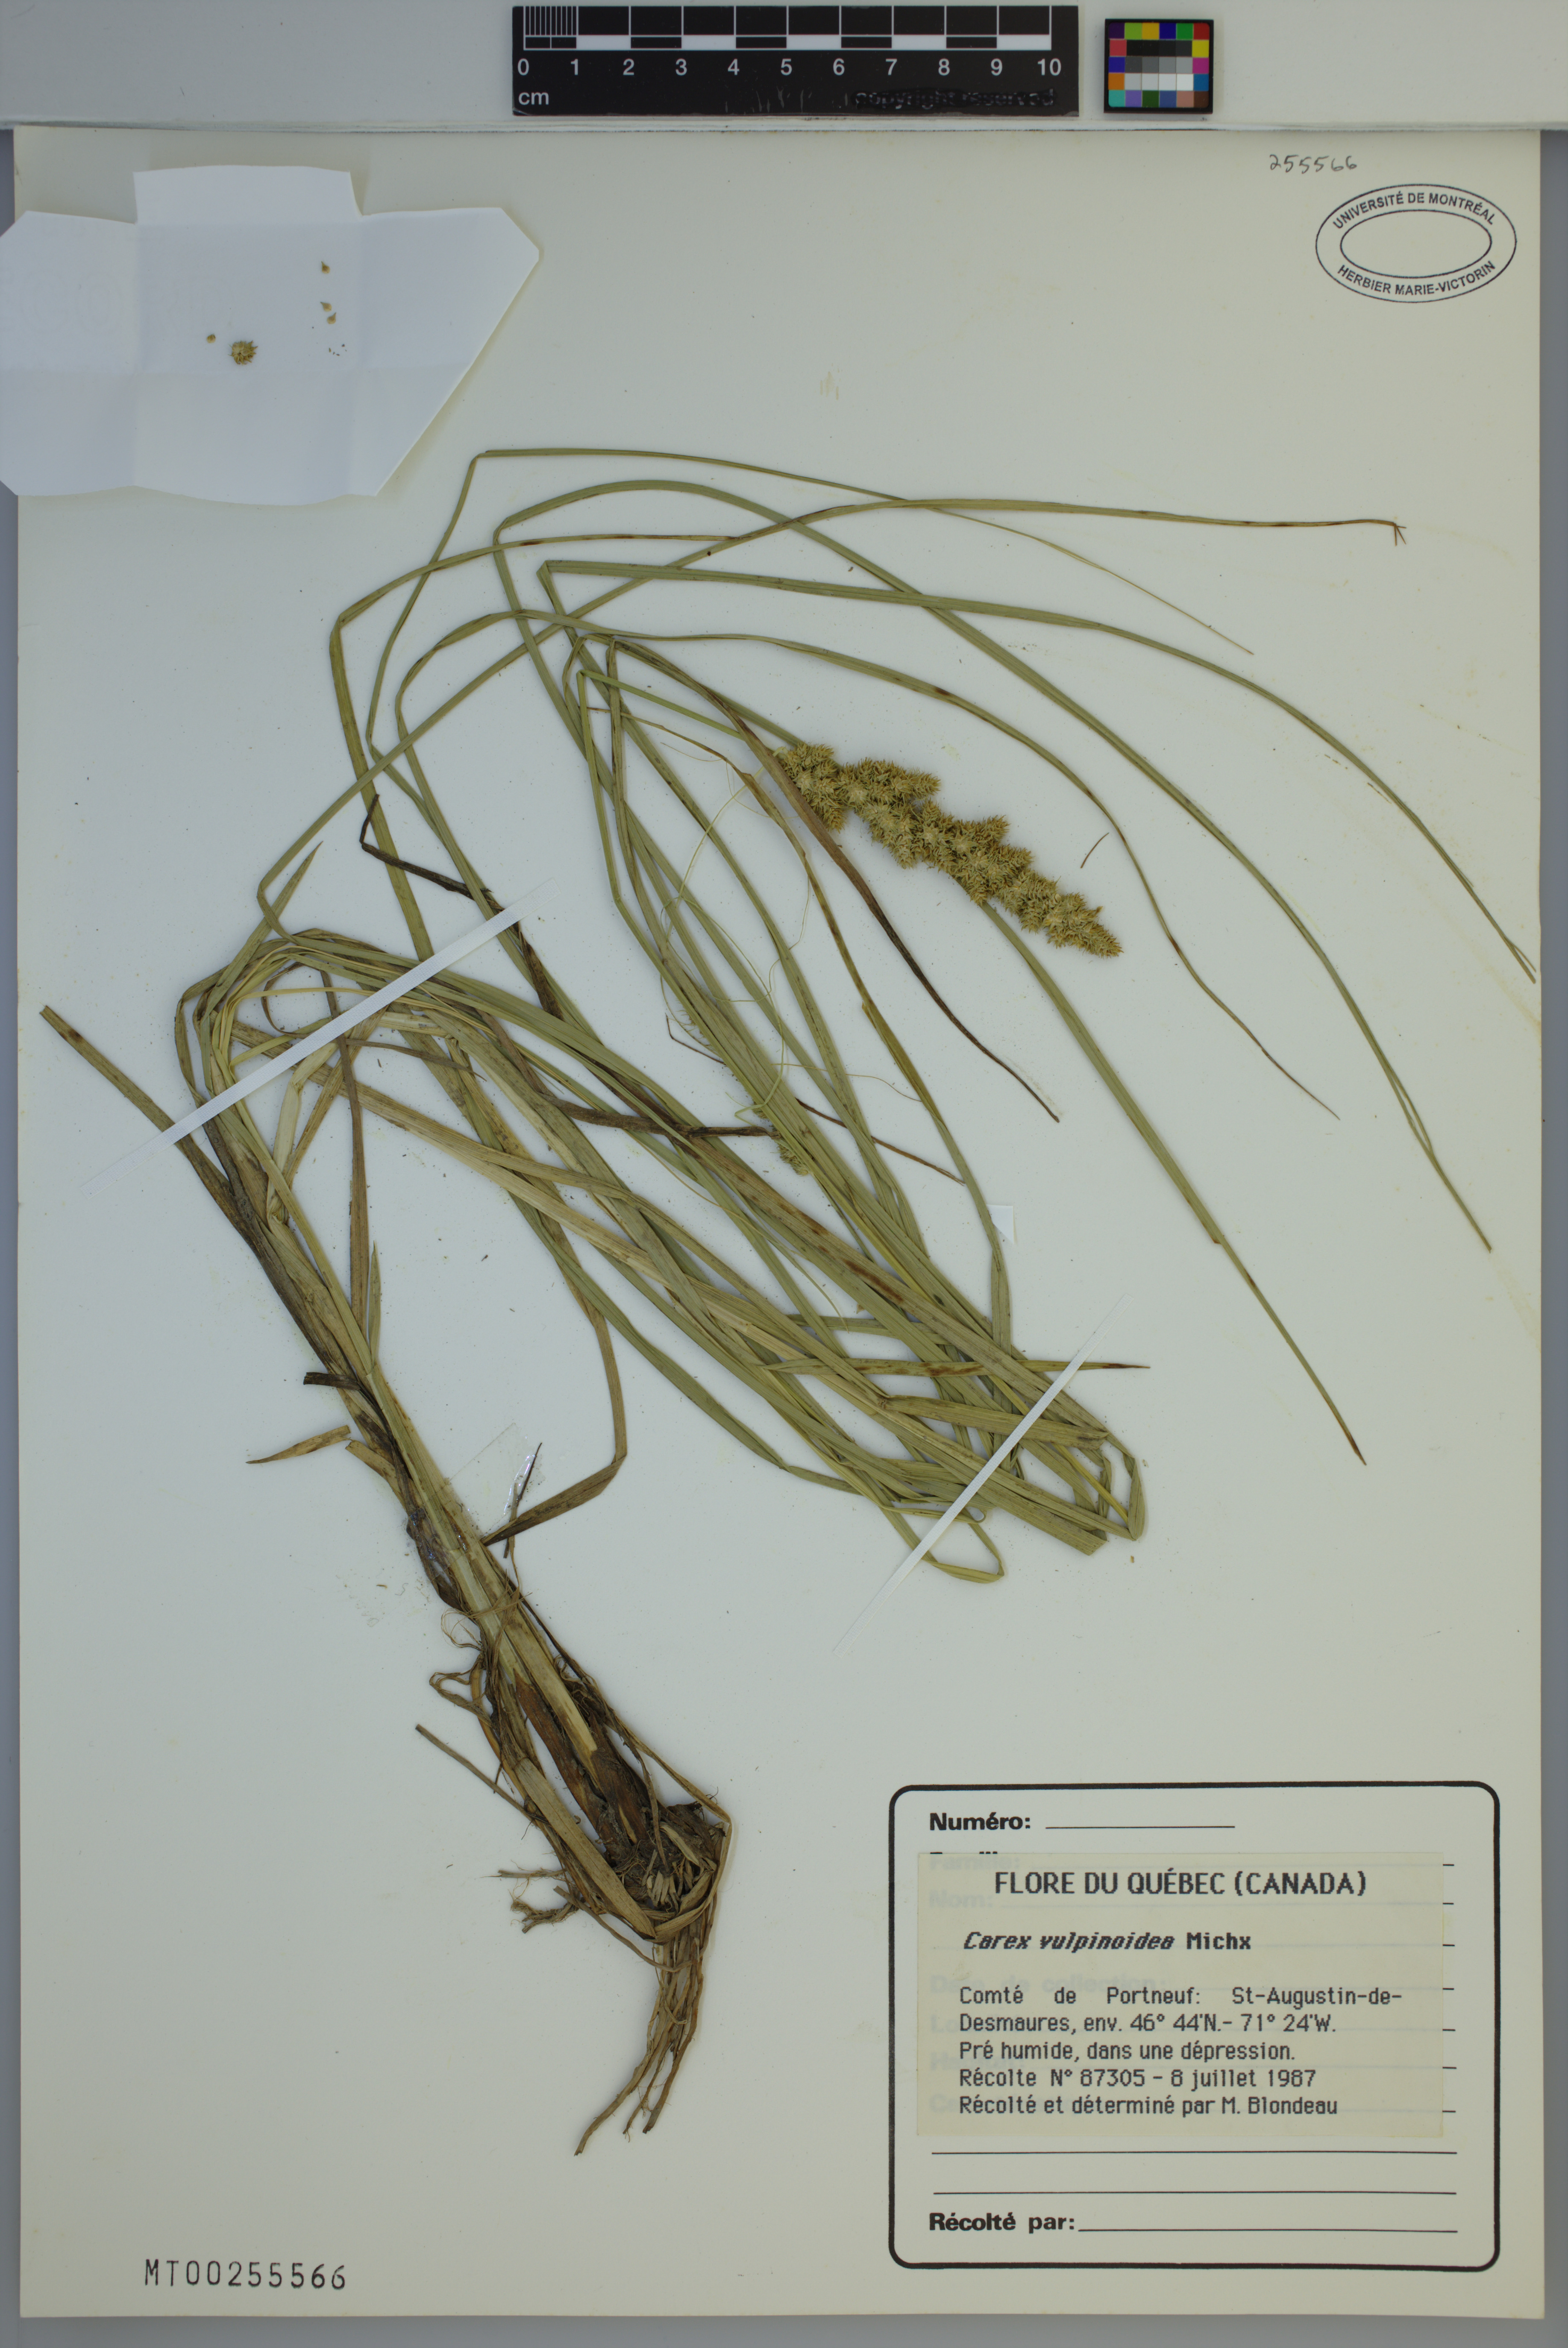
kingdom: Plantae
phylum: Tracheophyta
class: Liliopsida
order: Poales
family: Cyperaceae
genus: Carex
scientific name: Carex vulpinoidea
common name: American fox-sedge
